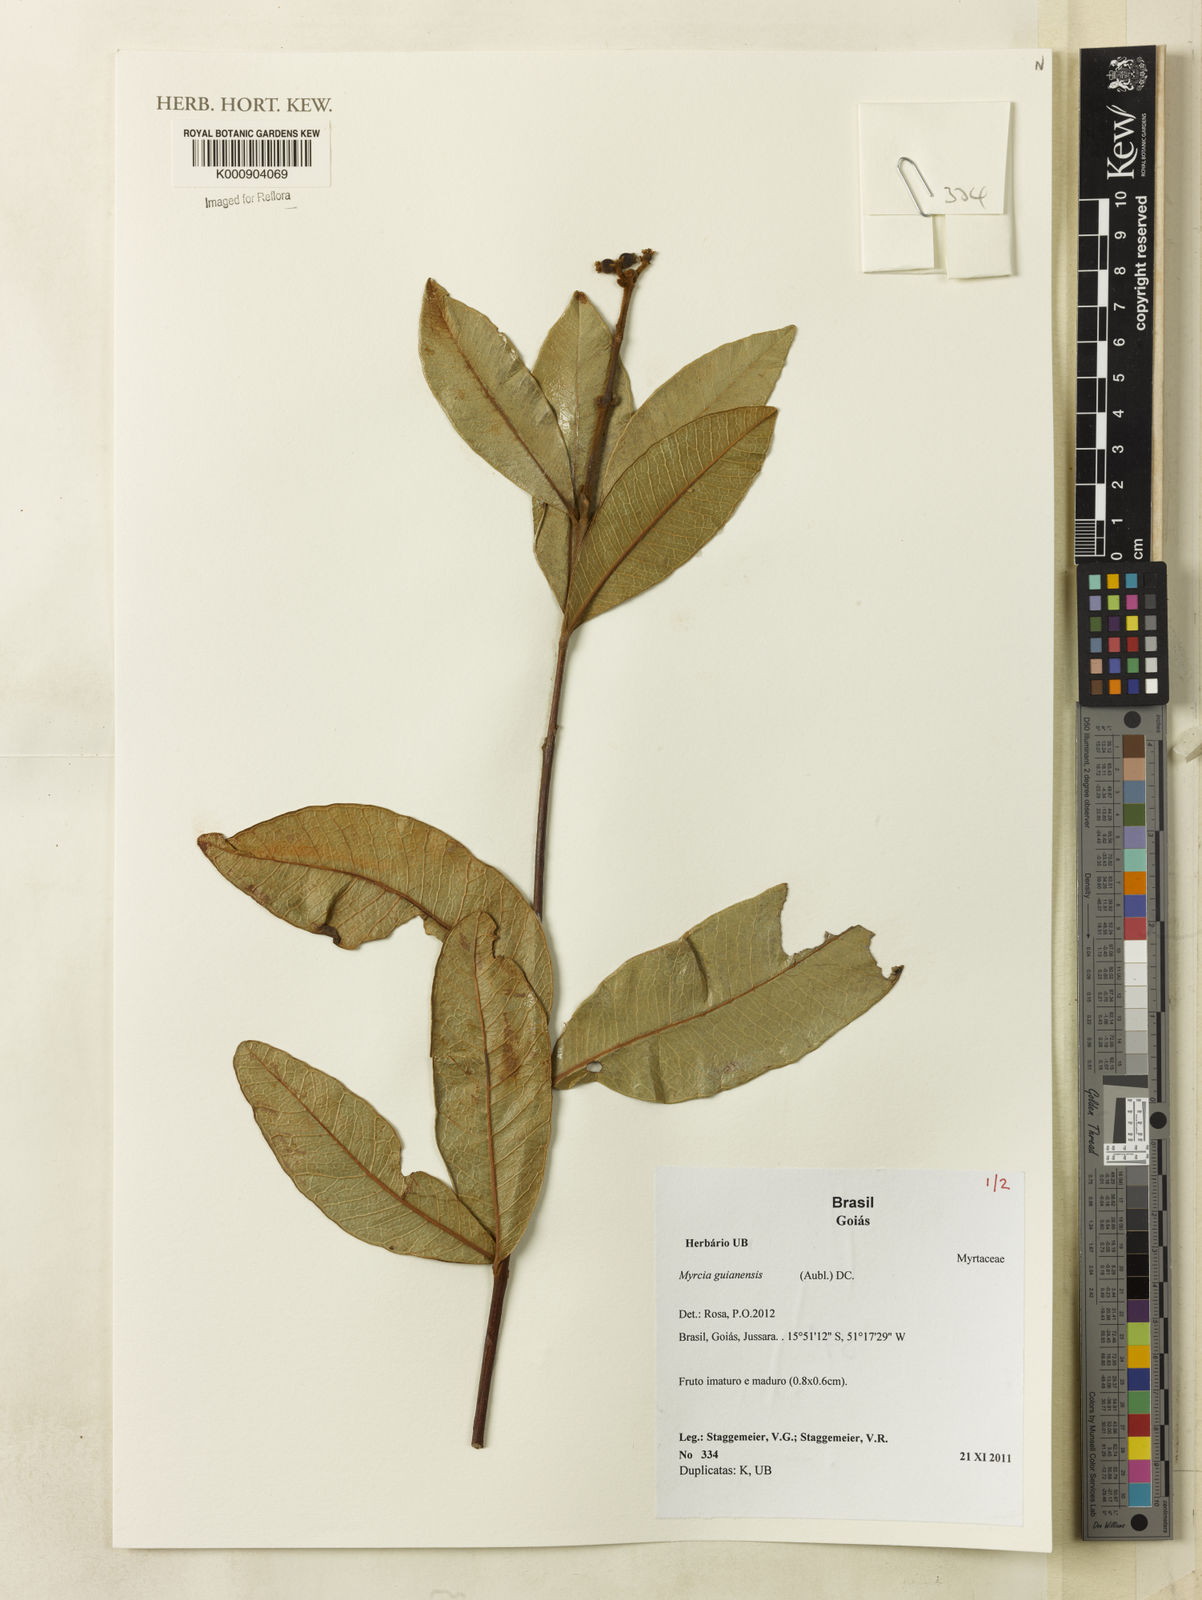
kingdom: Plantae
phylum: Tracheophyta
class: Magnoliopsida
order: Myrtales
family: Myrtaceae
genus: Myrcia
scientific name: Myrcia guianensis
